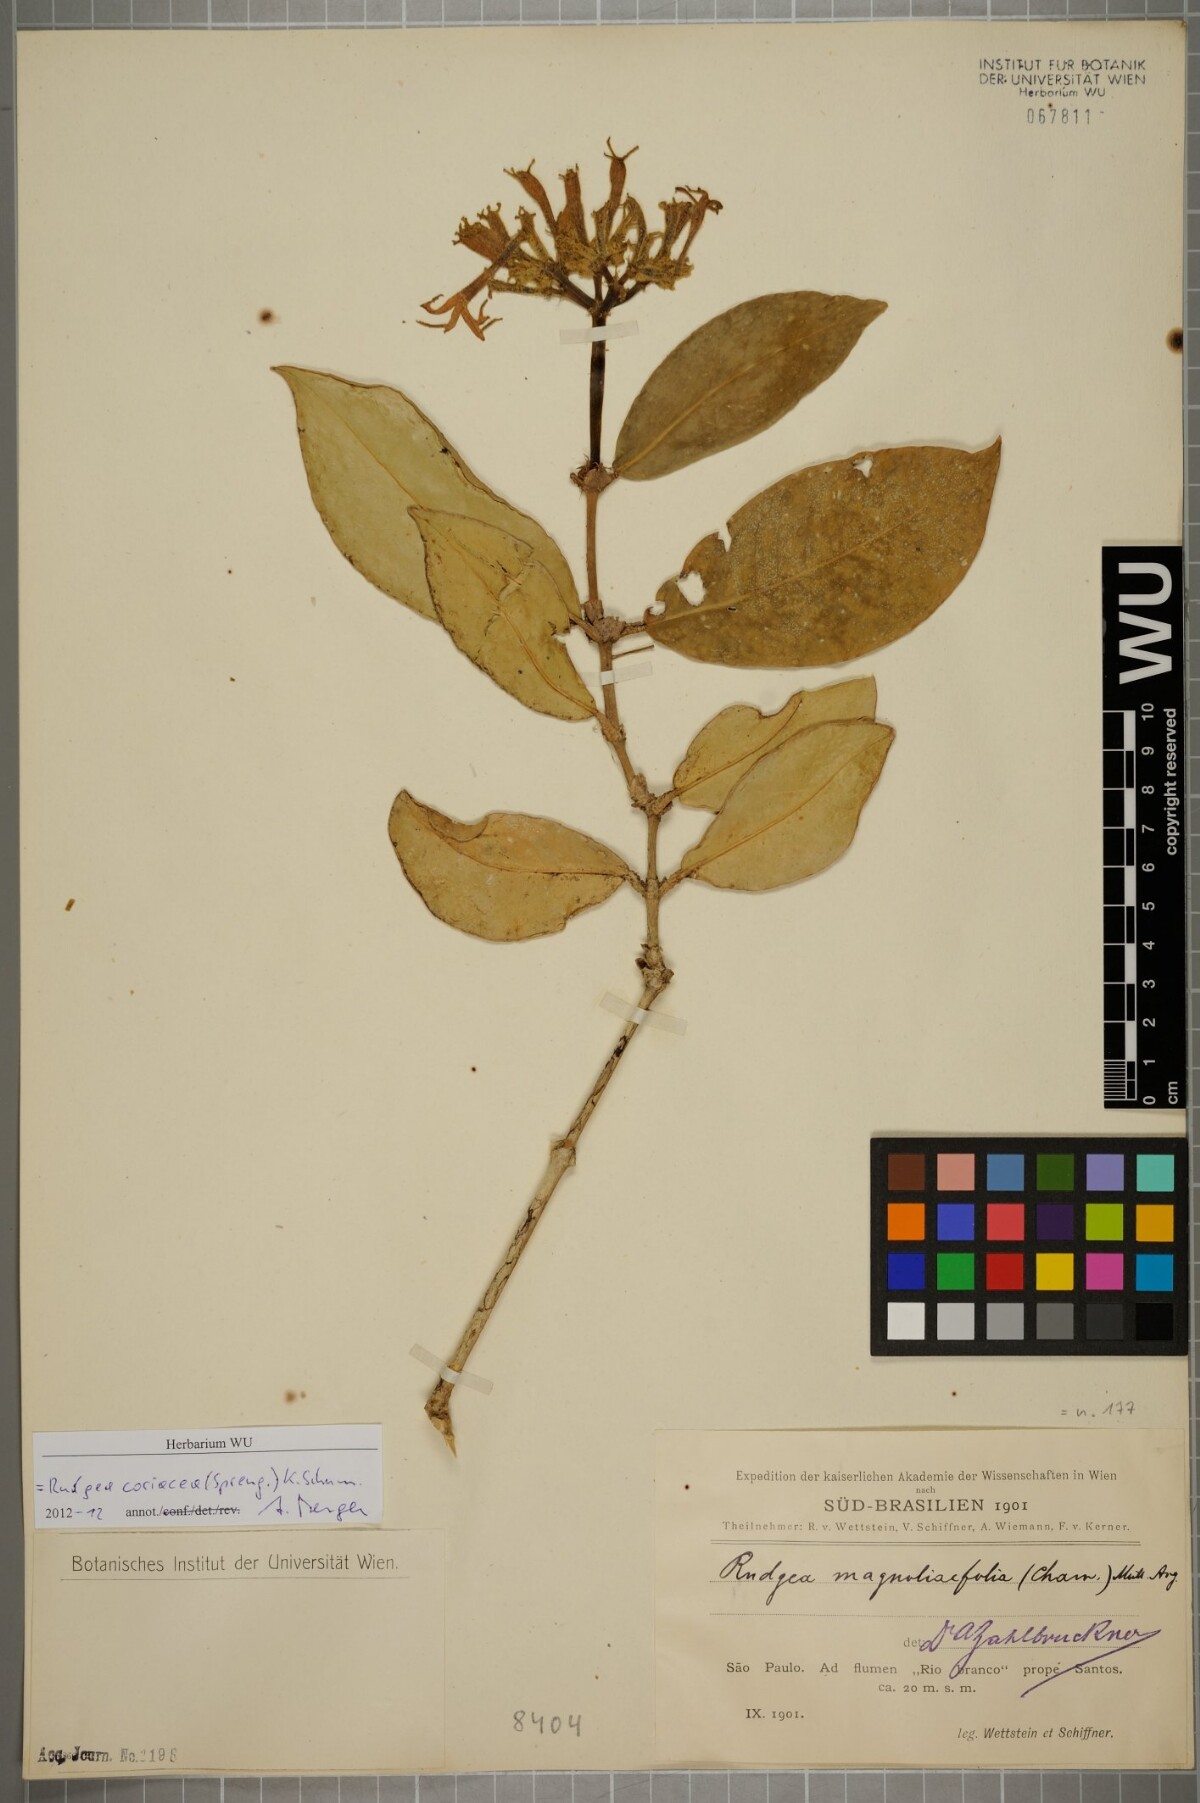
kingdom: Plantae
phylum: Tracheophyta
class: Magnoliopsida
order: Gentianales
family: Rubiaceae
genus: Rudgea
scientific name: Rudgea coriacea
